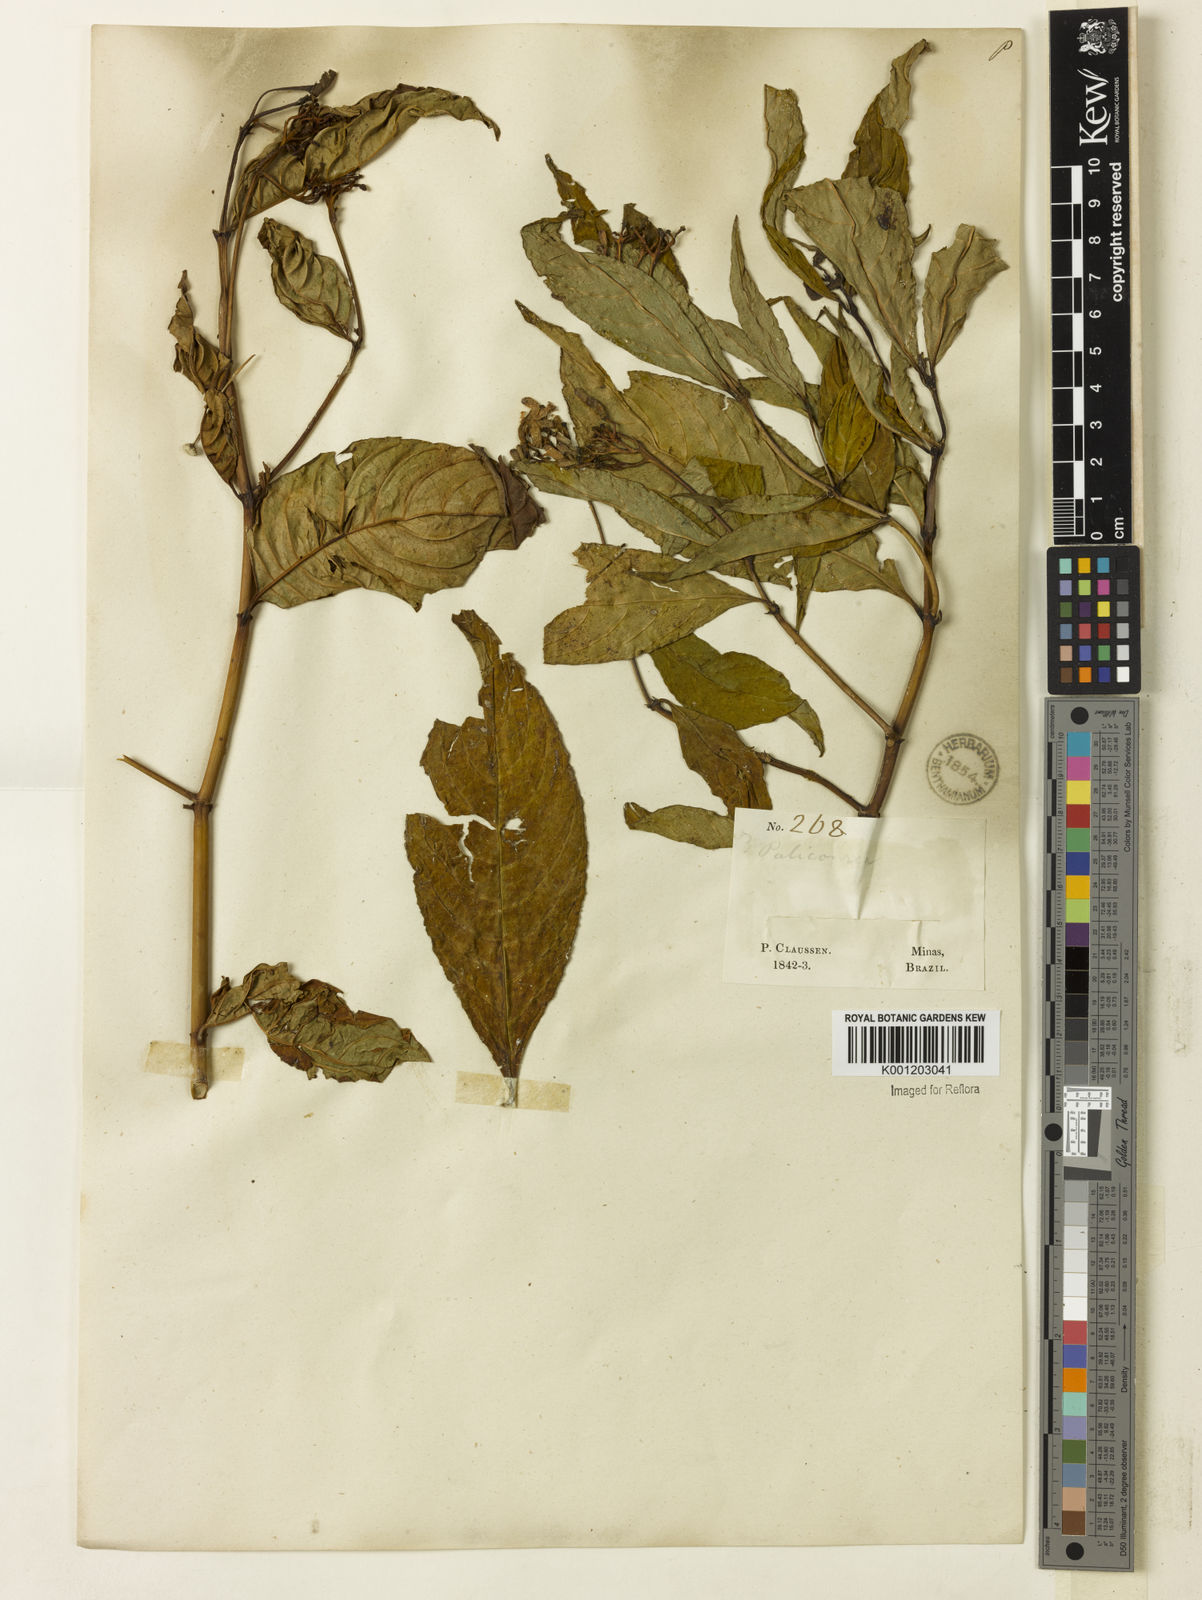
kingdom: Plantae
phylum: Tracheophyta
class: Magnoliopsida
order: Gentianales
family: Rubiaceae
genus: Palicourea
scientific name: Palicourea marcgravii
